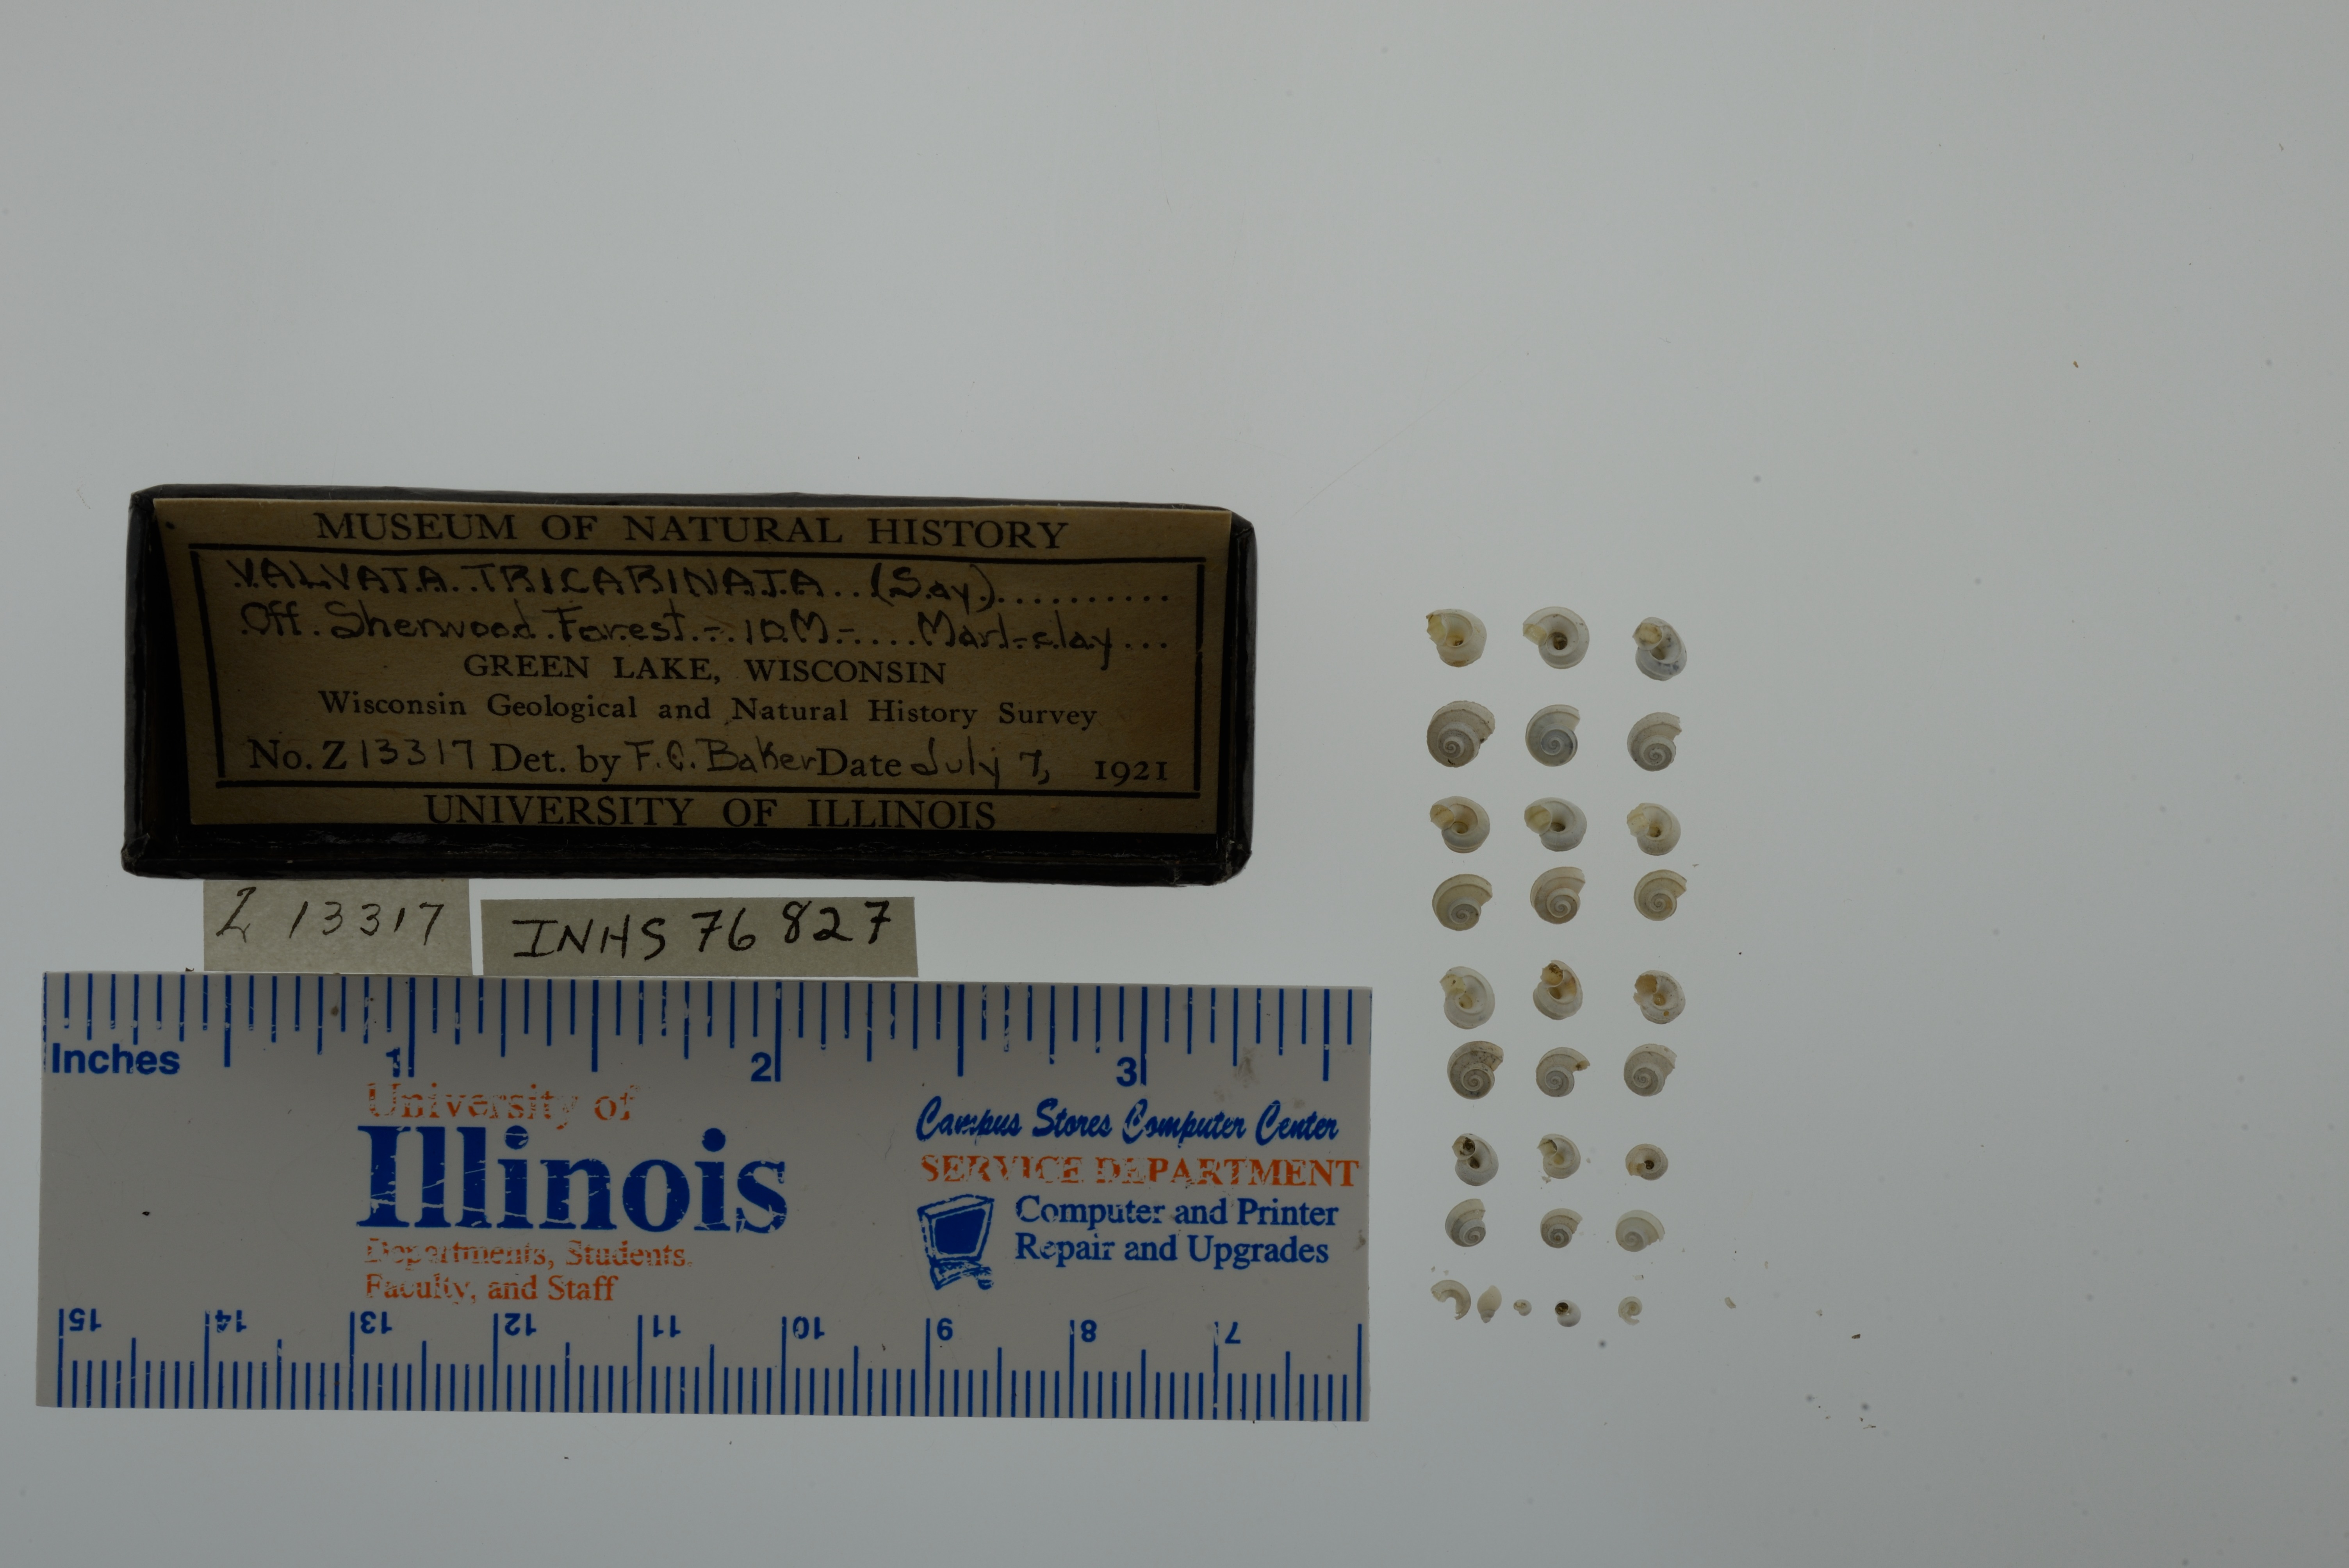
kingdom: Animalia
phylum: Mollusca
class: Gastropoda
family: Valvatidae
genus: Valvata
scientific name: Valvata tricarinata
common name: Three-ridge valvata
